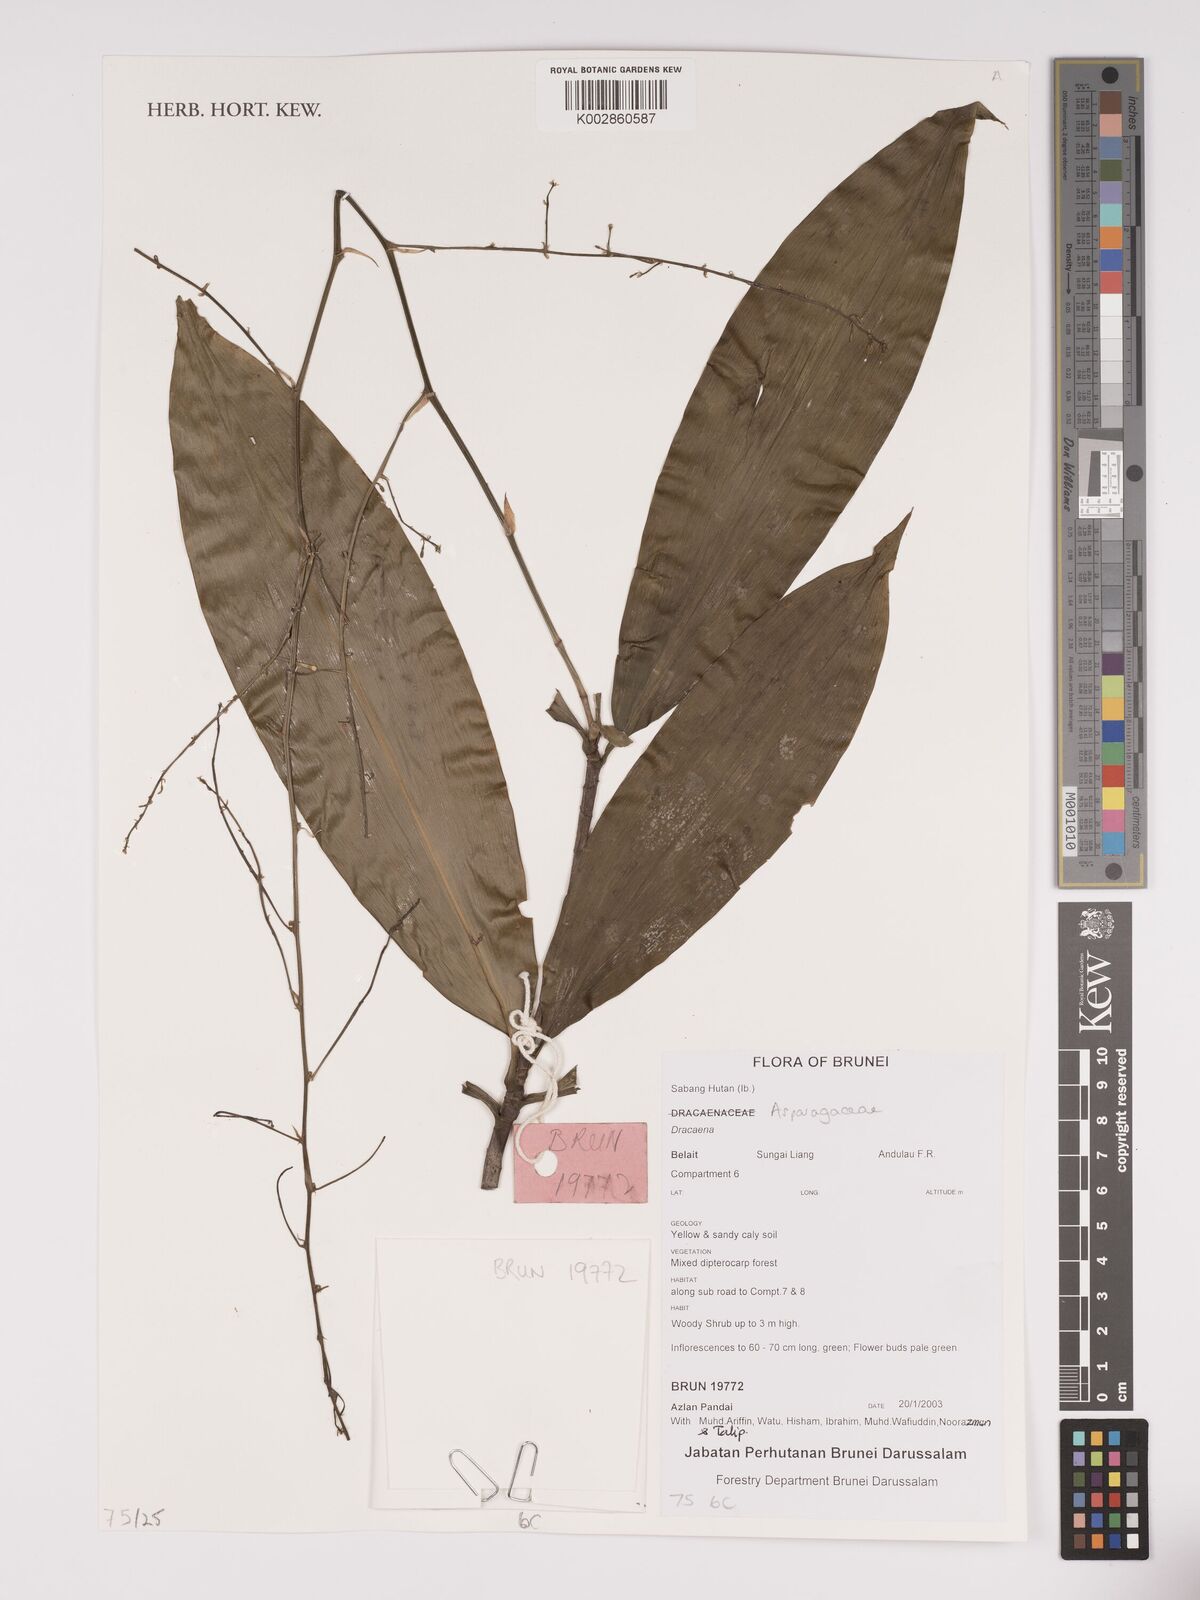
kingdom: Plantae
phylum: Tracheophyta
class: Liliopsida
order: Asparagales
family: Asparagaceae
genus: Dracaena
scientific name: Dracaena
